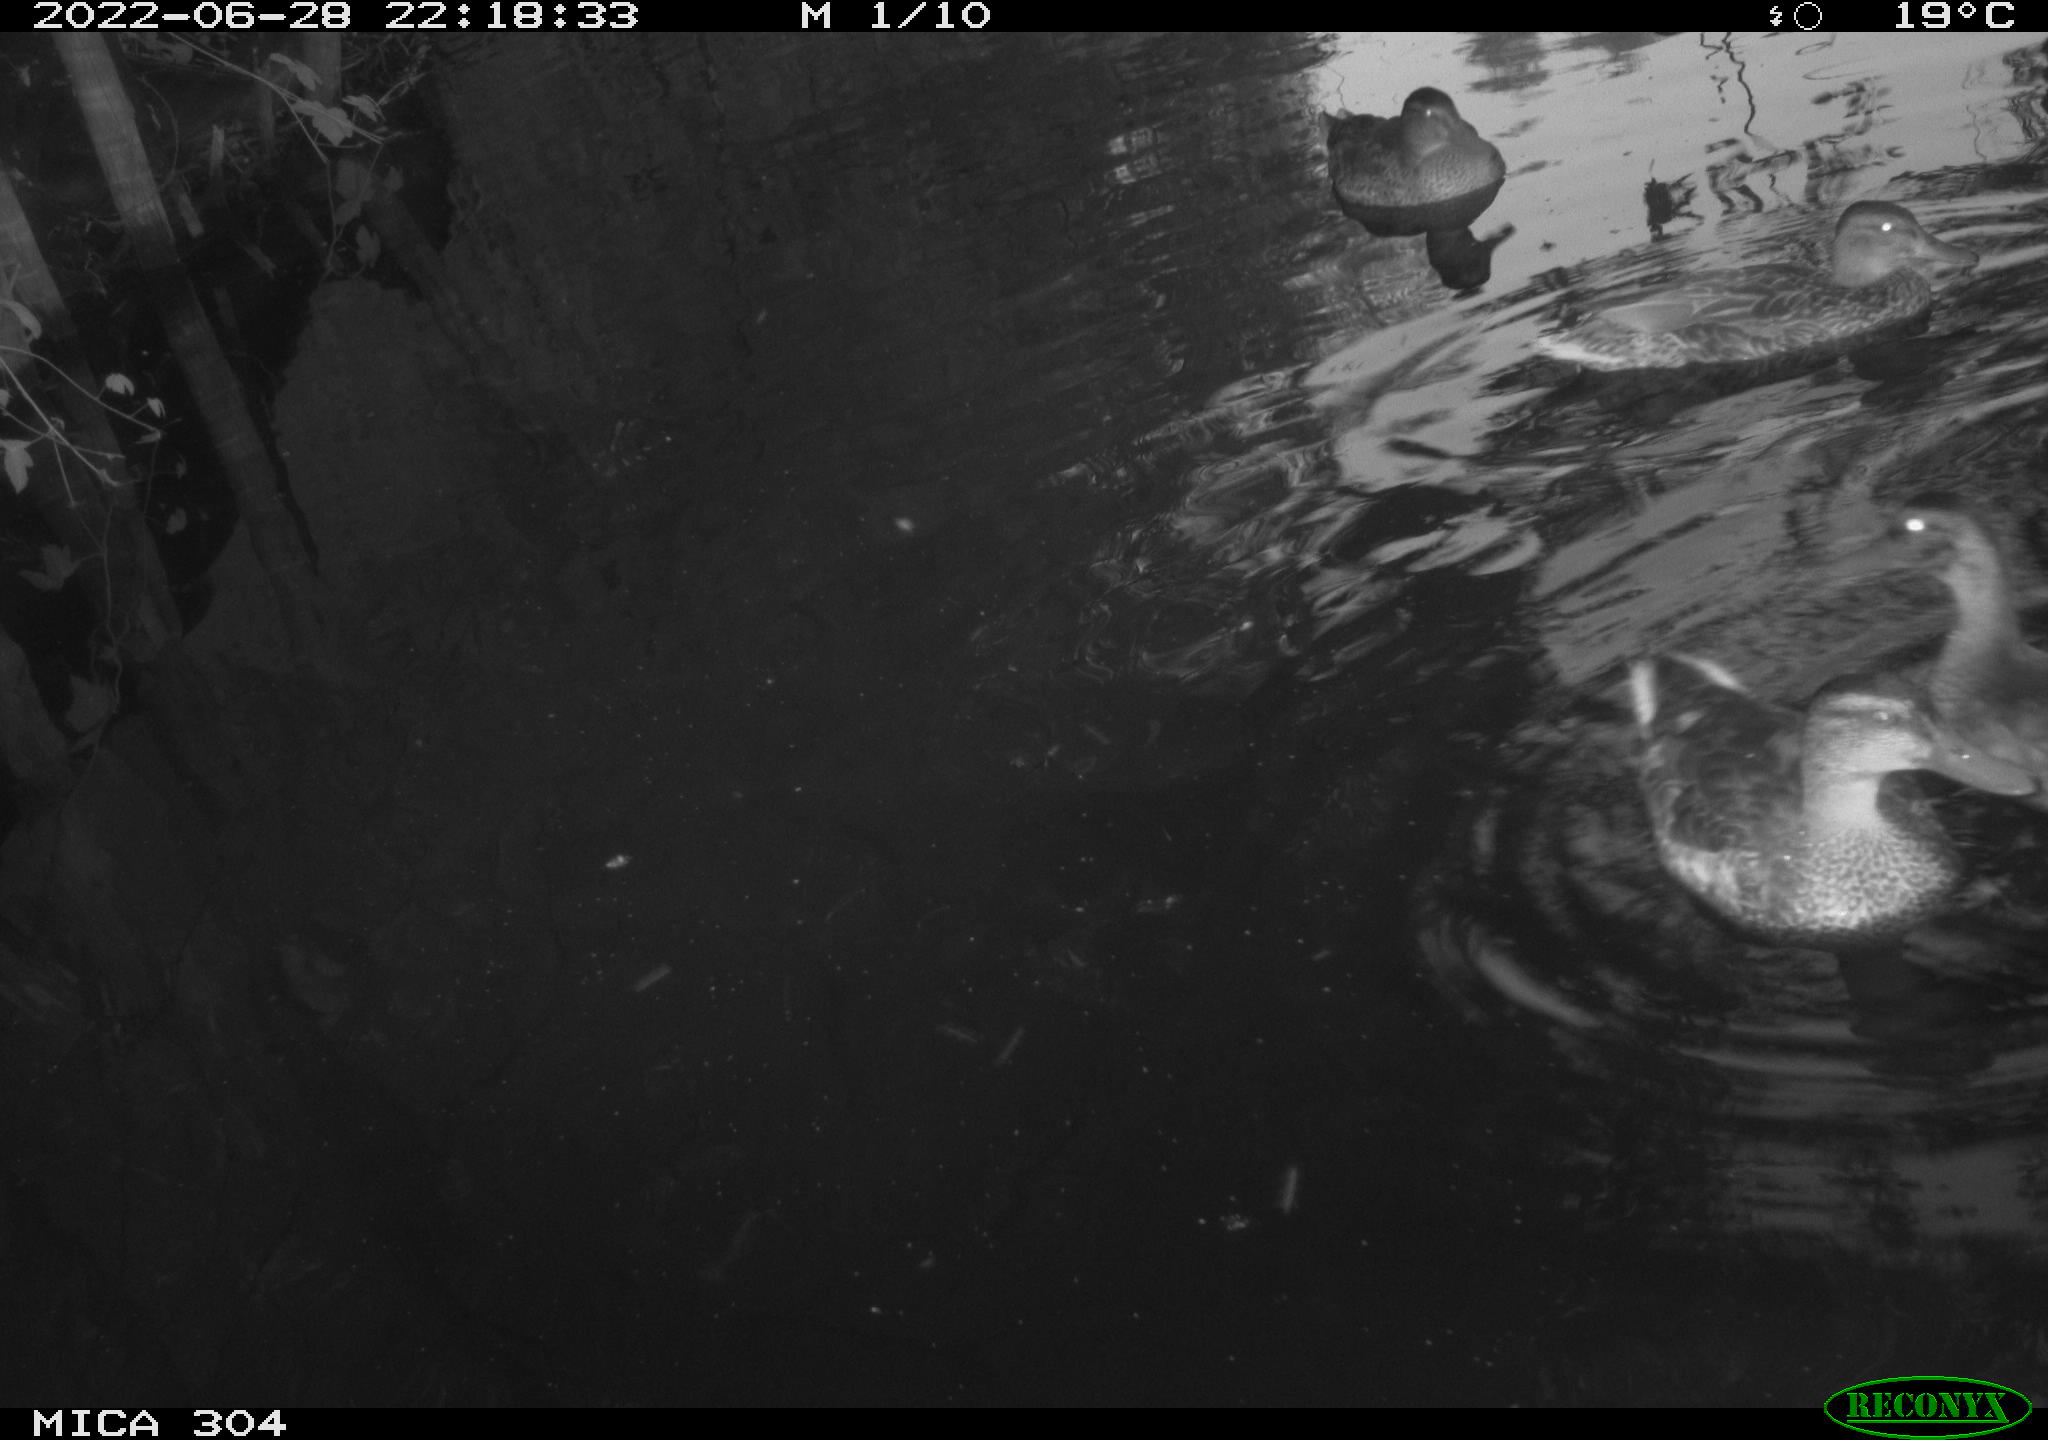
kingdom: Animalia
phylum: Chordata
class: Aves
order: Anseriformes
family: Anatidae
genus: Anas
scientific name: Anas platyrhynchos
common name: Mallard
